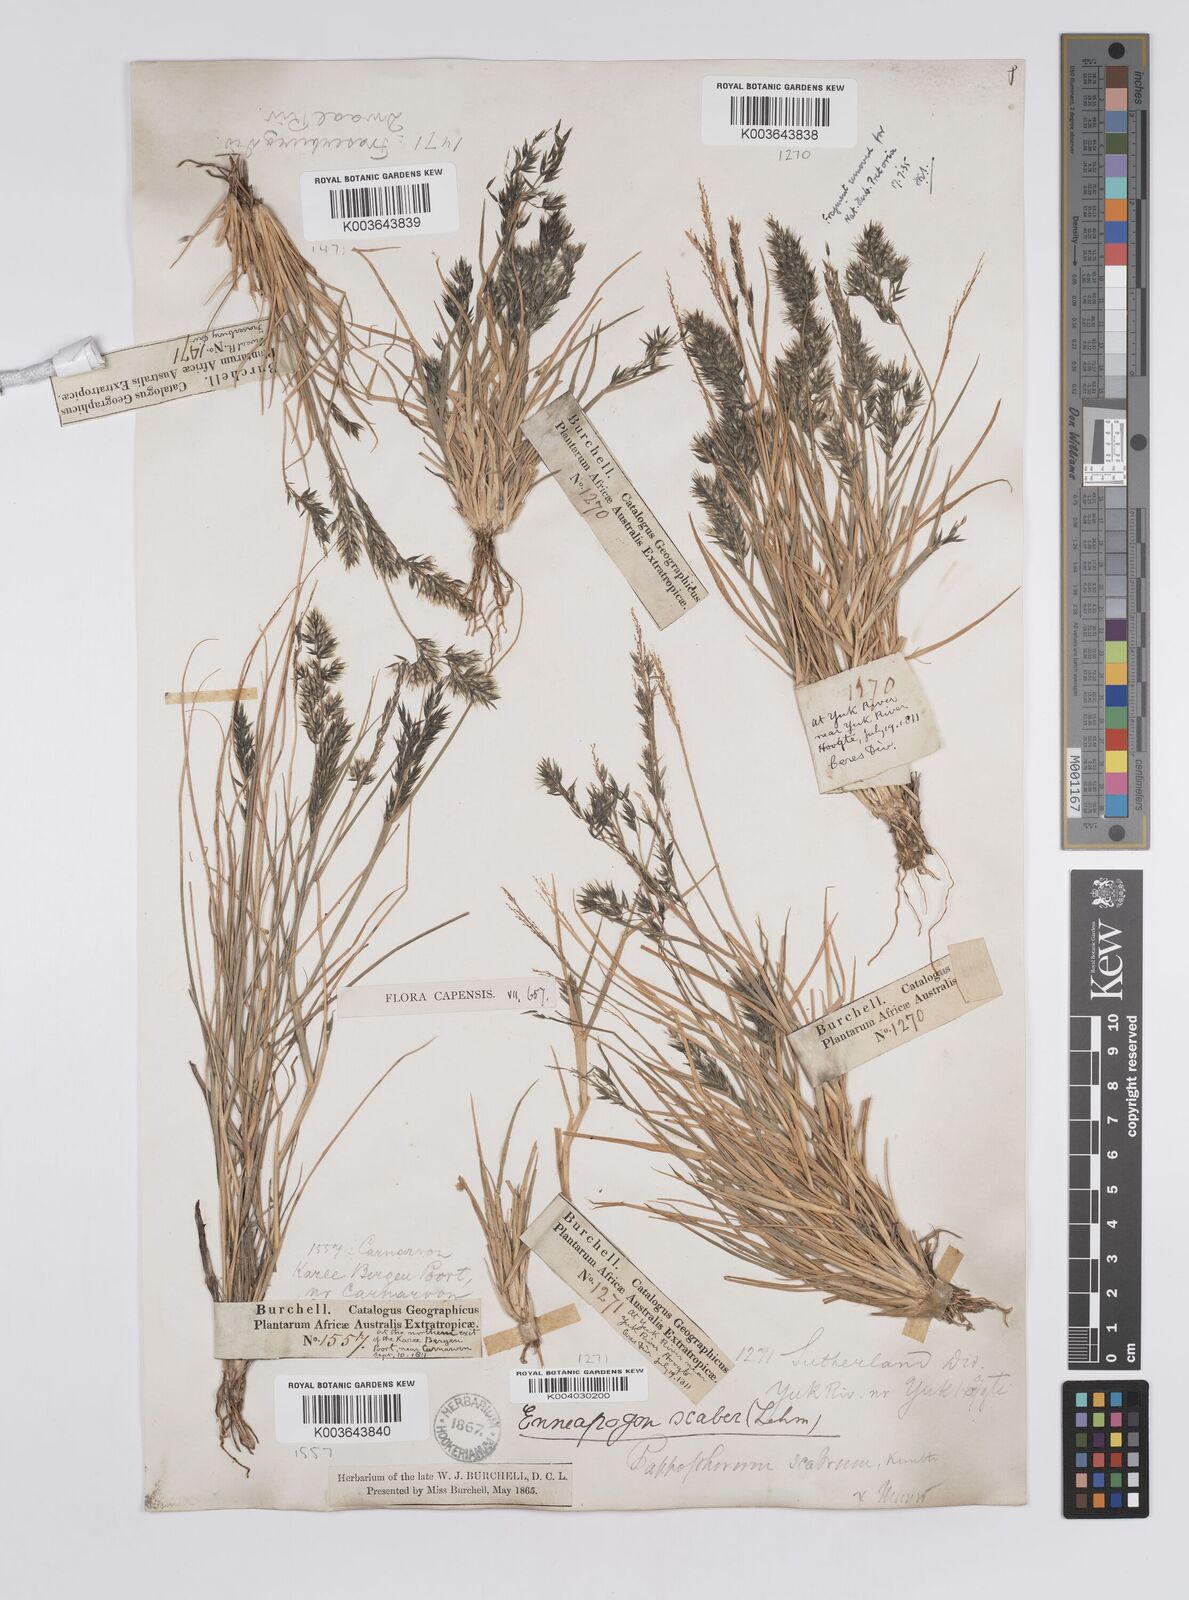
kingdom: Plantae
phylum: Tracheophyta
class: Liliopsida
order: Poales
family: Poaceae
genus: Enneapogon
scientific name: Enneapogon scaber
